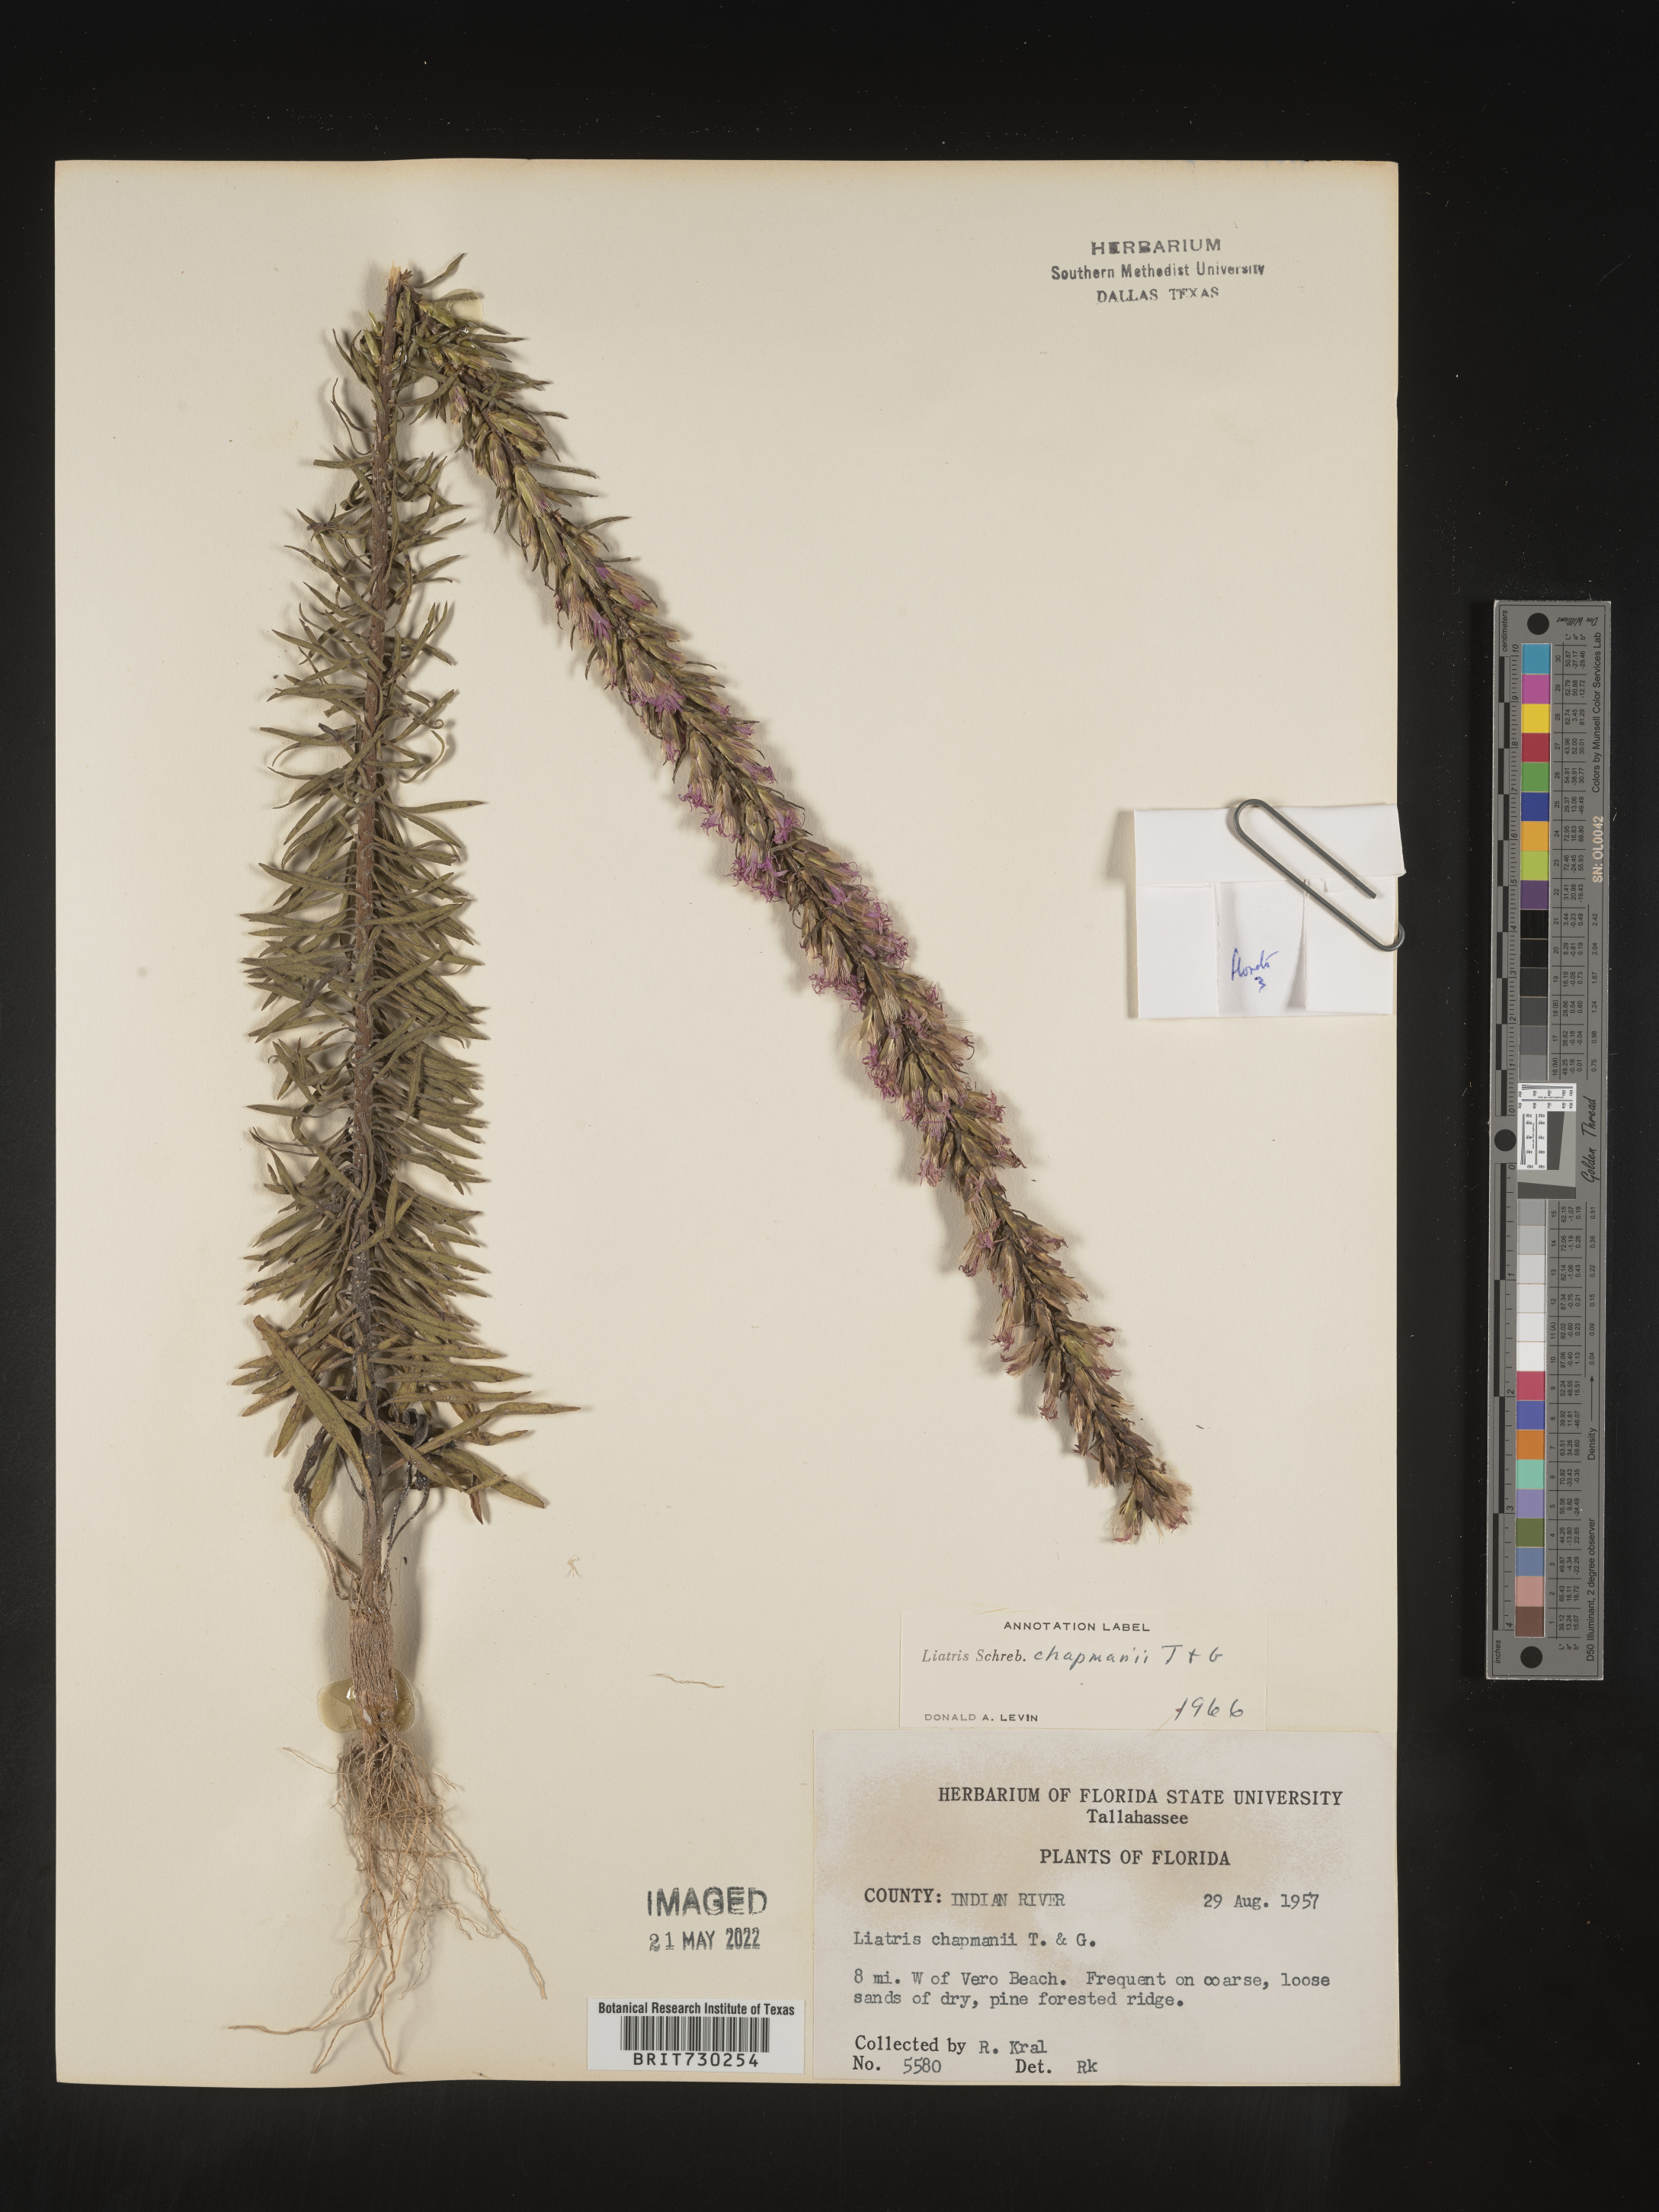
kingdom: Plantae
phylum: Tracheophyta
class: Magnoliopsida
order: Asterales
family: Asteraceae
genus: Liatris
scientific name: Liatris chapmanii
